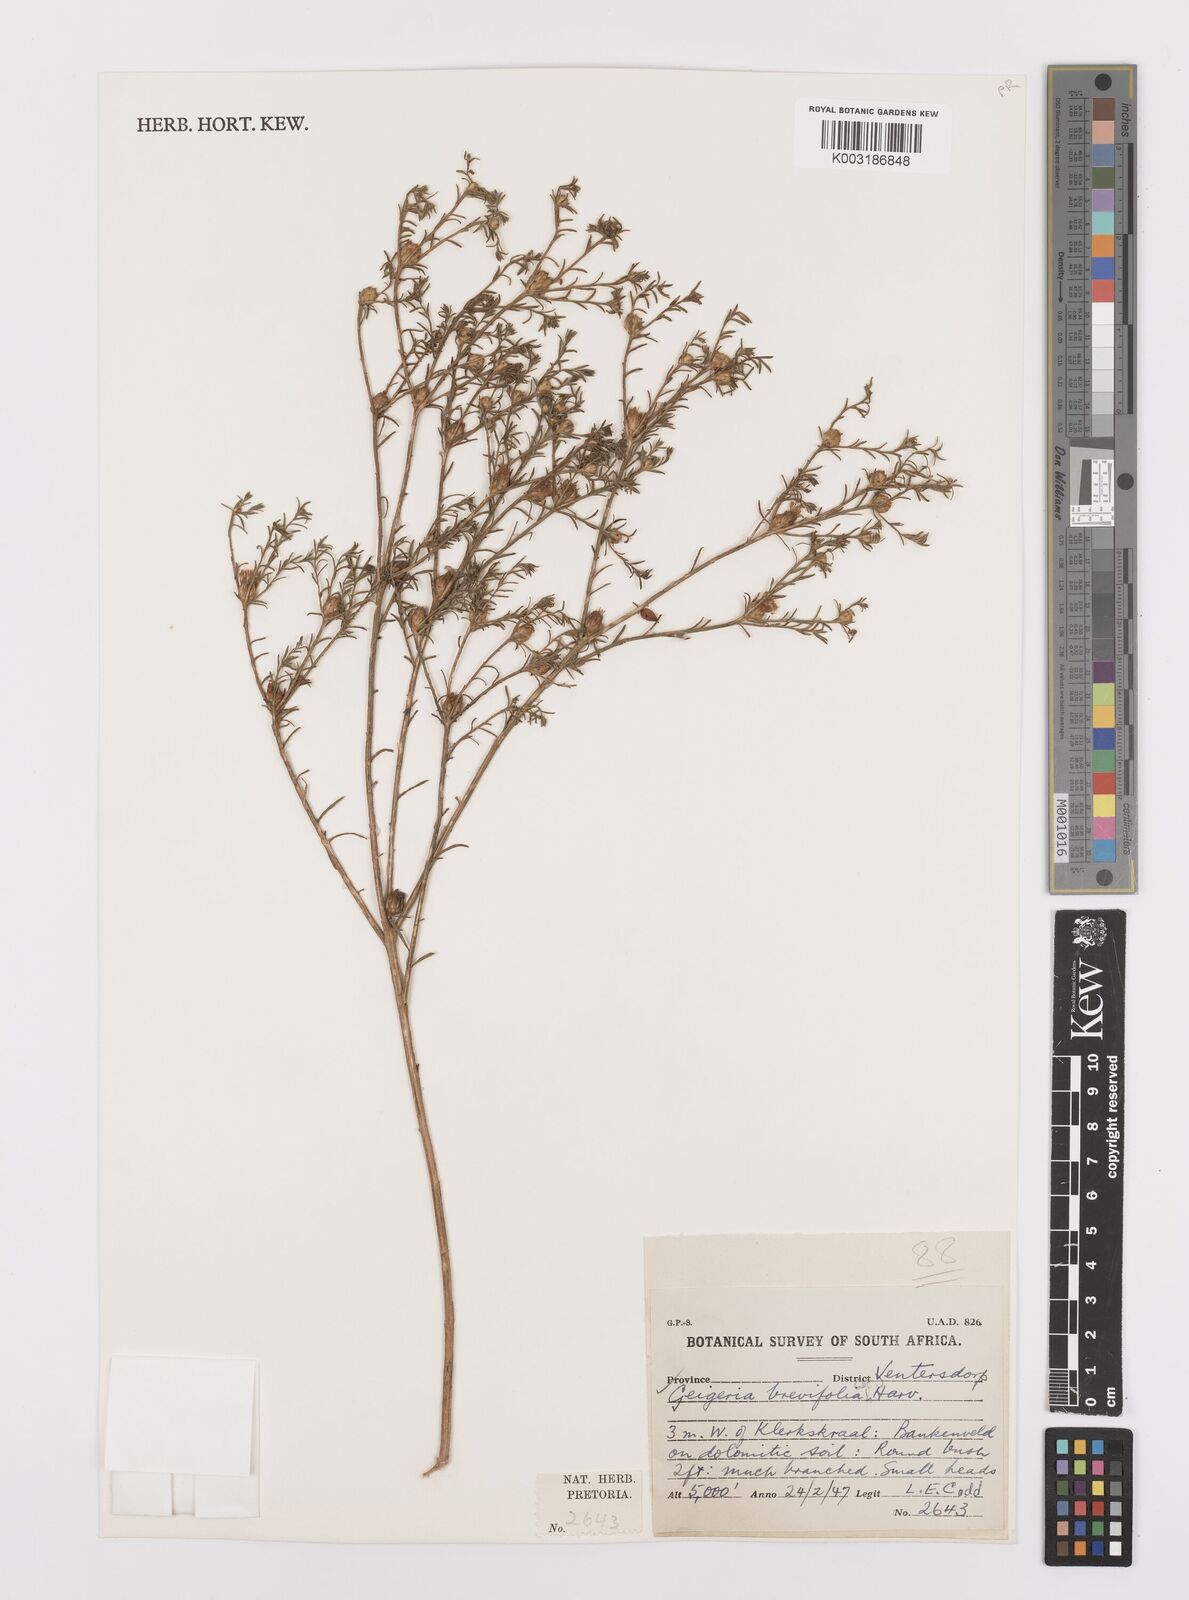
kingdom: Plantae
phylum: Tracheophyta
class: Magnoliopsida
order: Asterales
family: Asteraceae
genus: Geigeria
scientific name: Geigeria brevifolia
